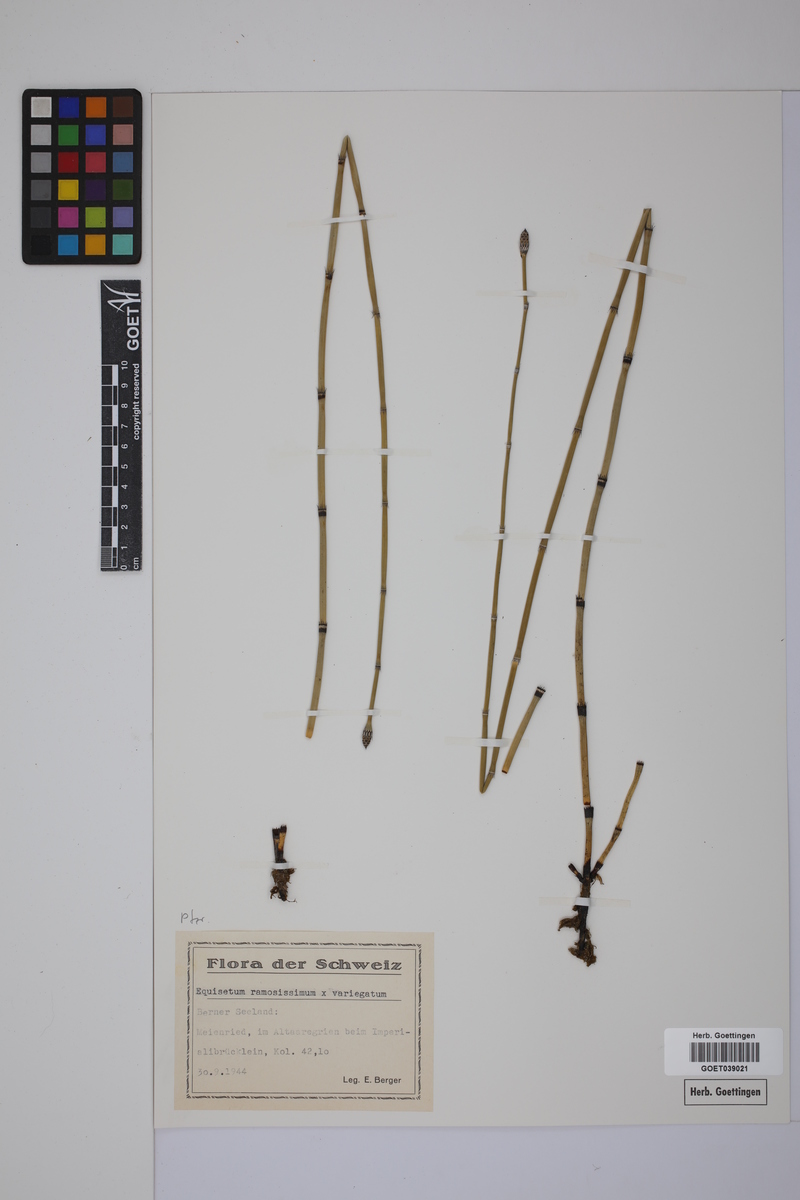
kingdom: Plantae
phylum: Tracheophyta
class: Polypodiopsida
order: Equisetales
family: Equisetaceae
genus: Equisetum
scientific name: Equisetum giganteum
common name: Giant horsetail
